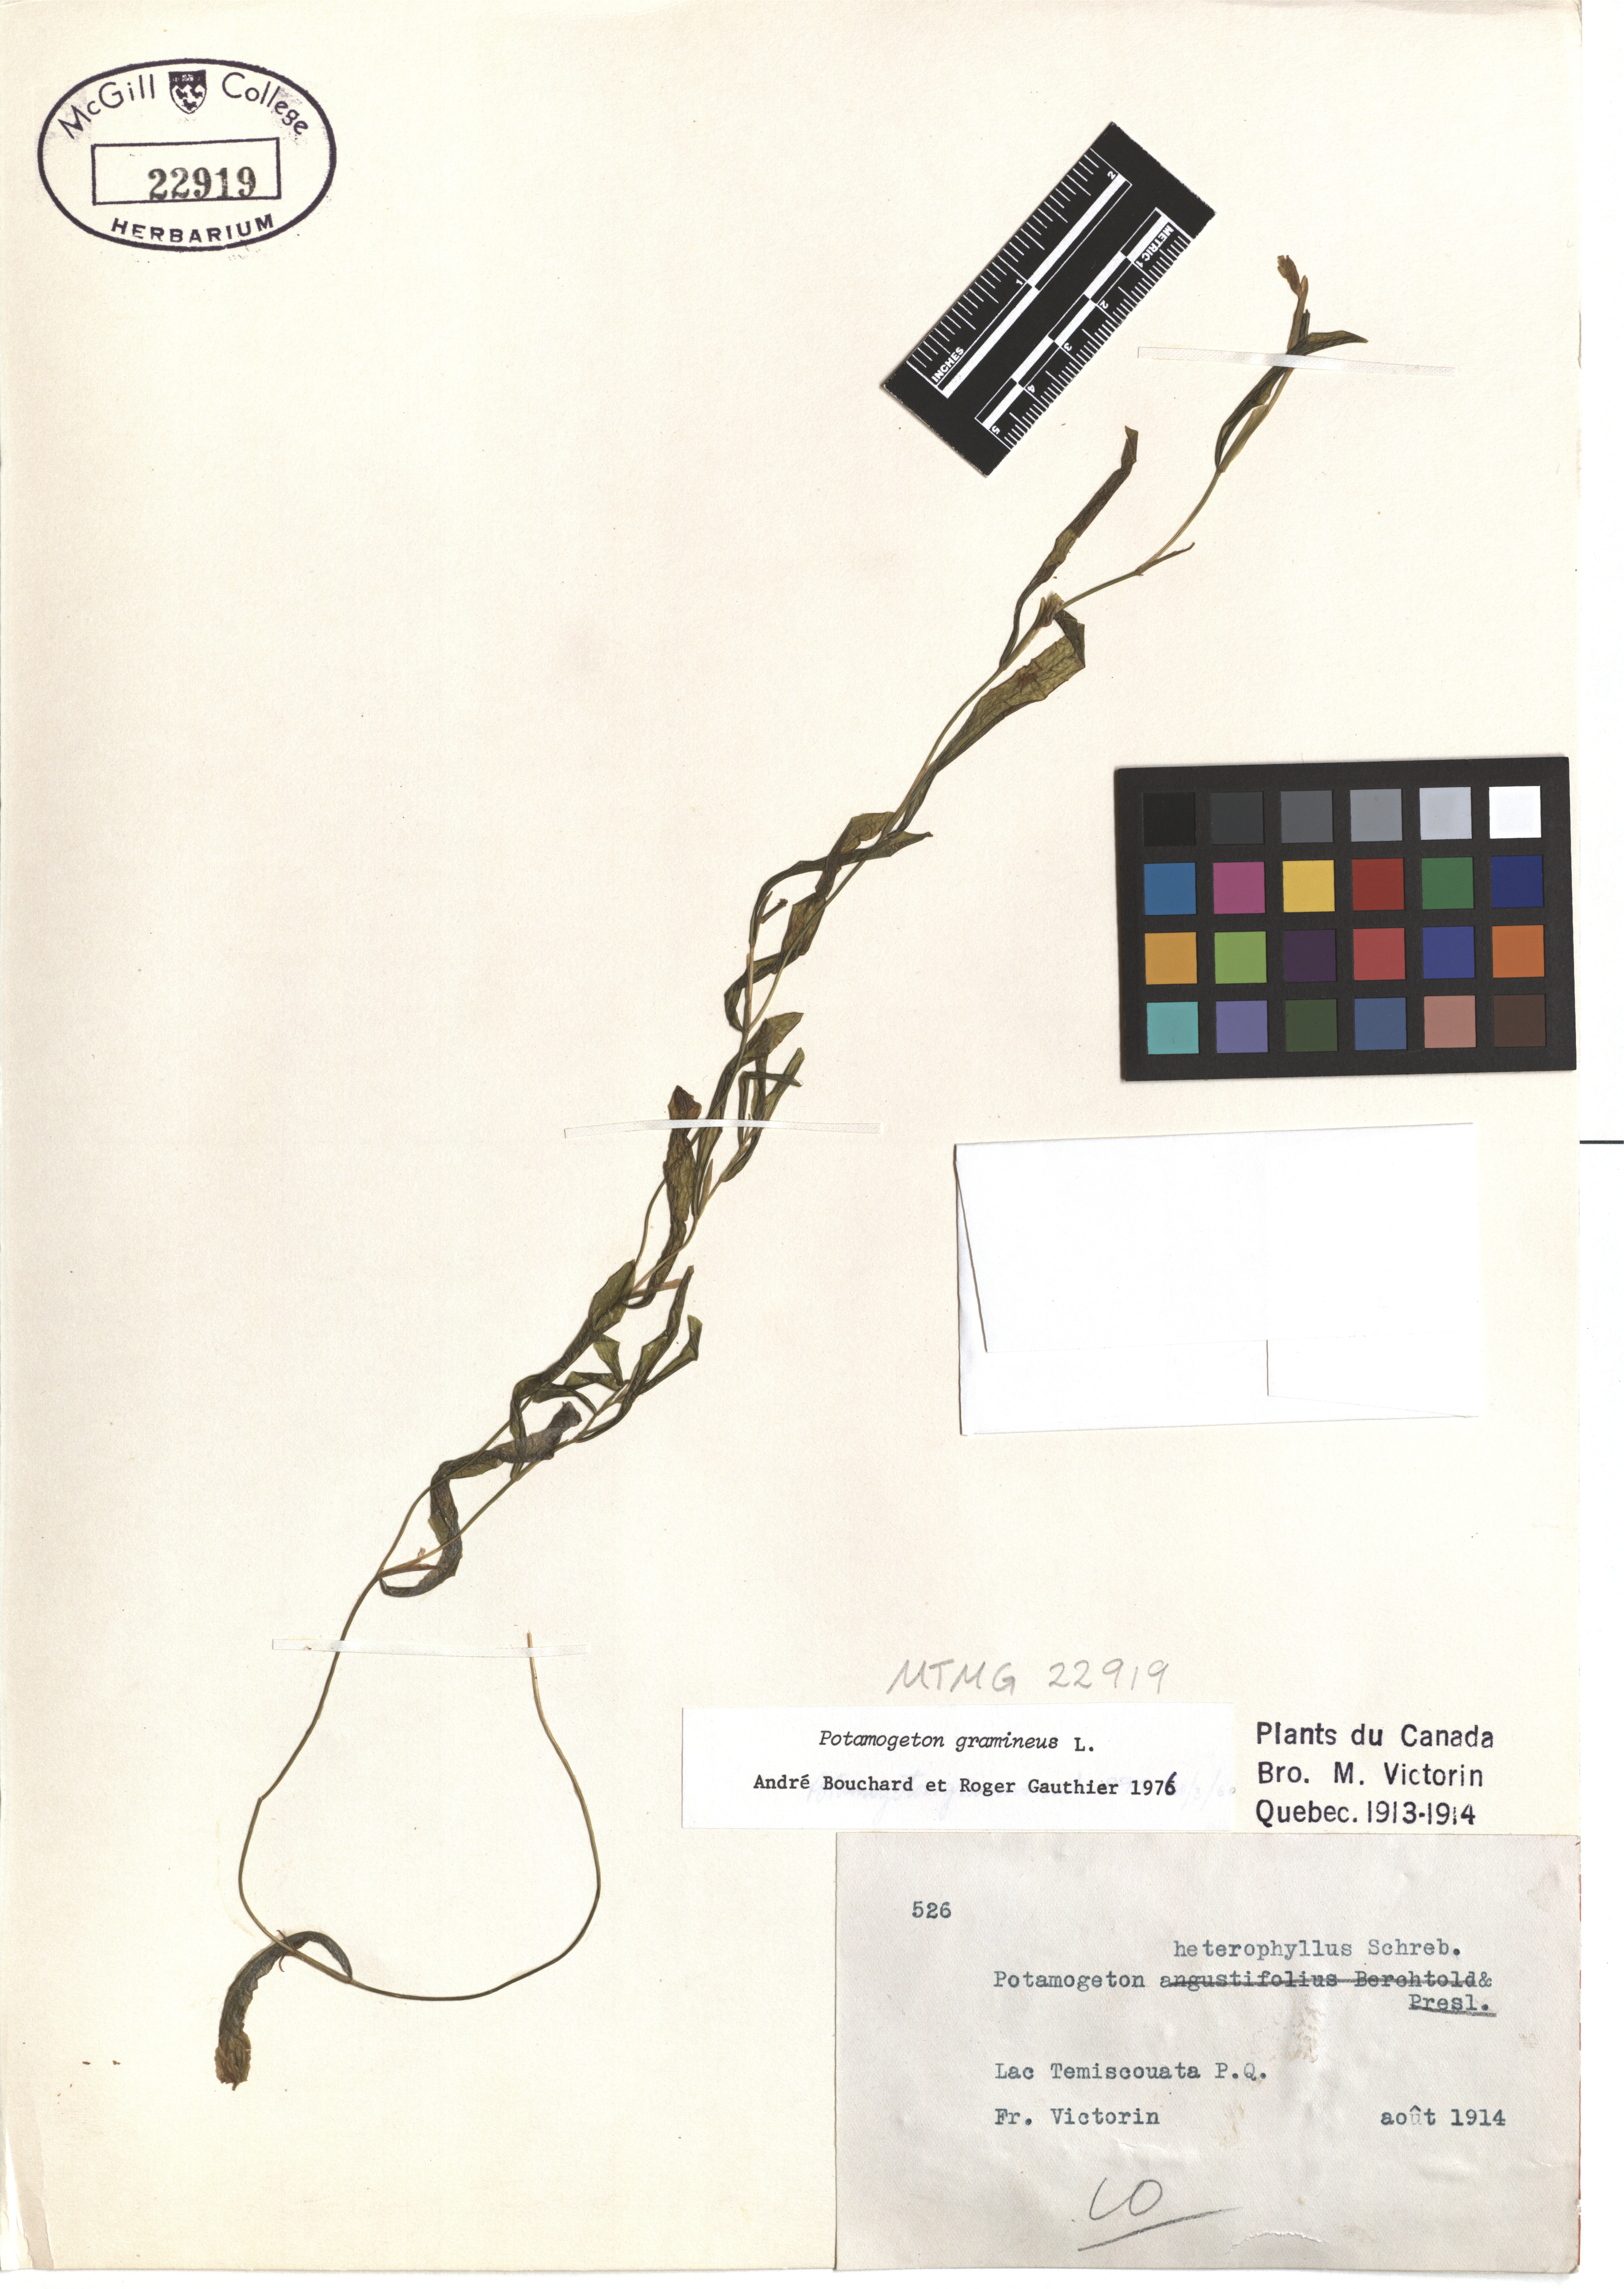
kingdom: Plantae
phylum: Tracheophyta
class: Liliopsida
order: Alismatales
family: Potamogetonaceae
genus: Potamogeton
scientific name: Potamogeton gramineus
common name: Various-leaved pondweed
